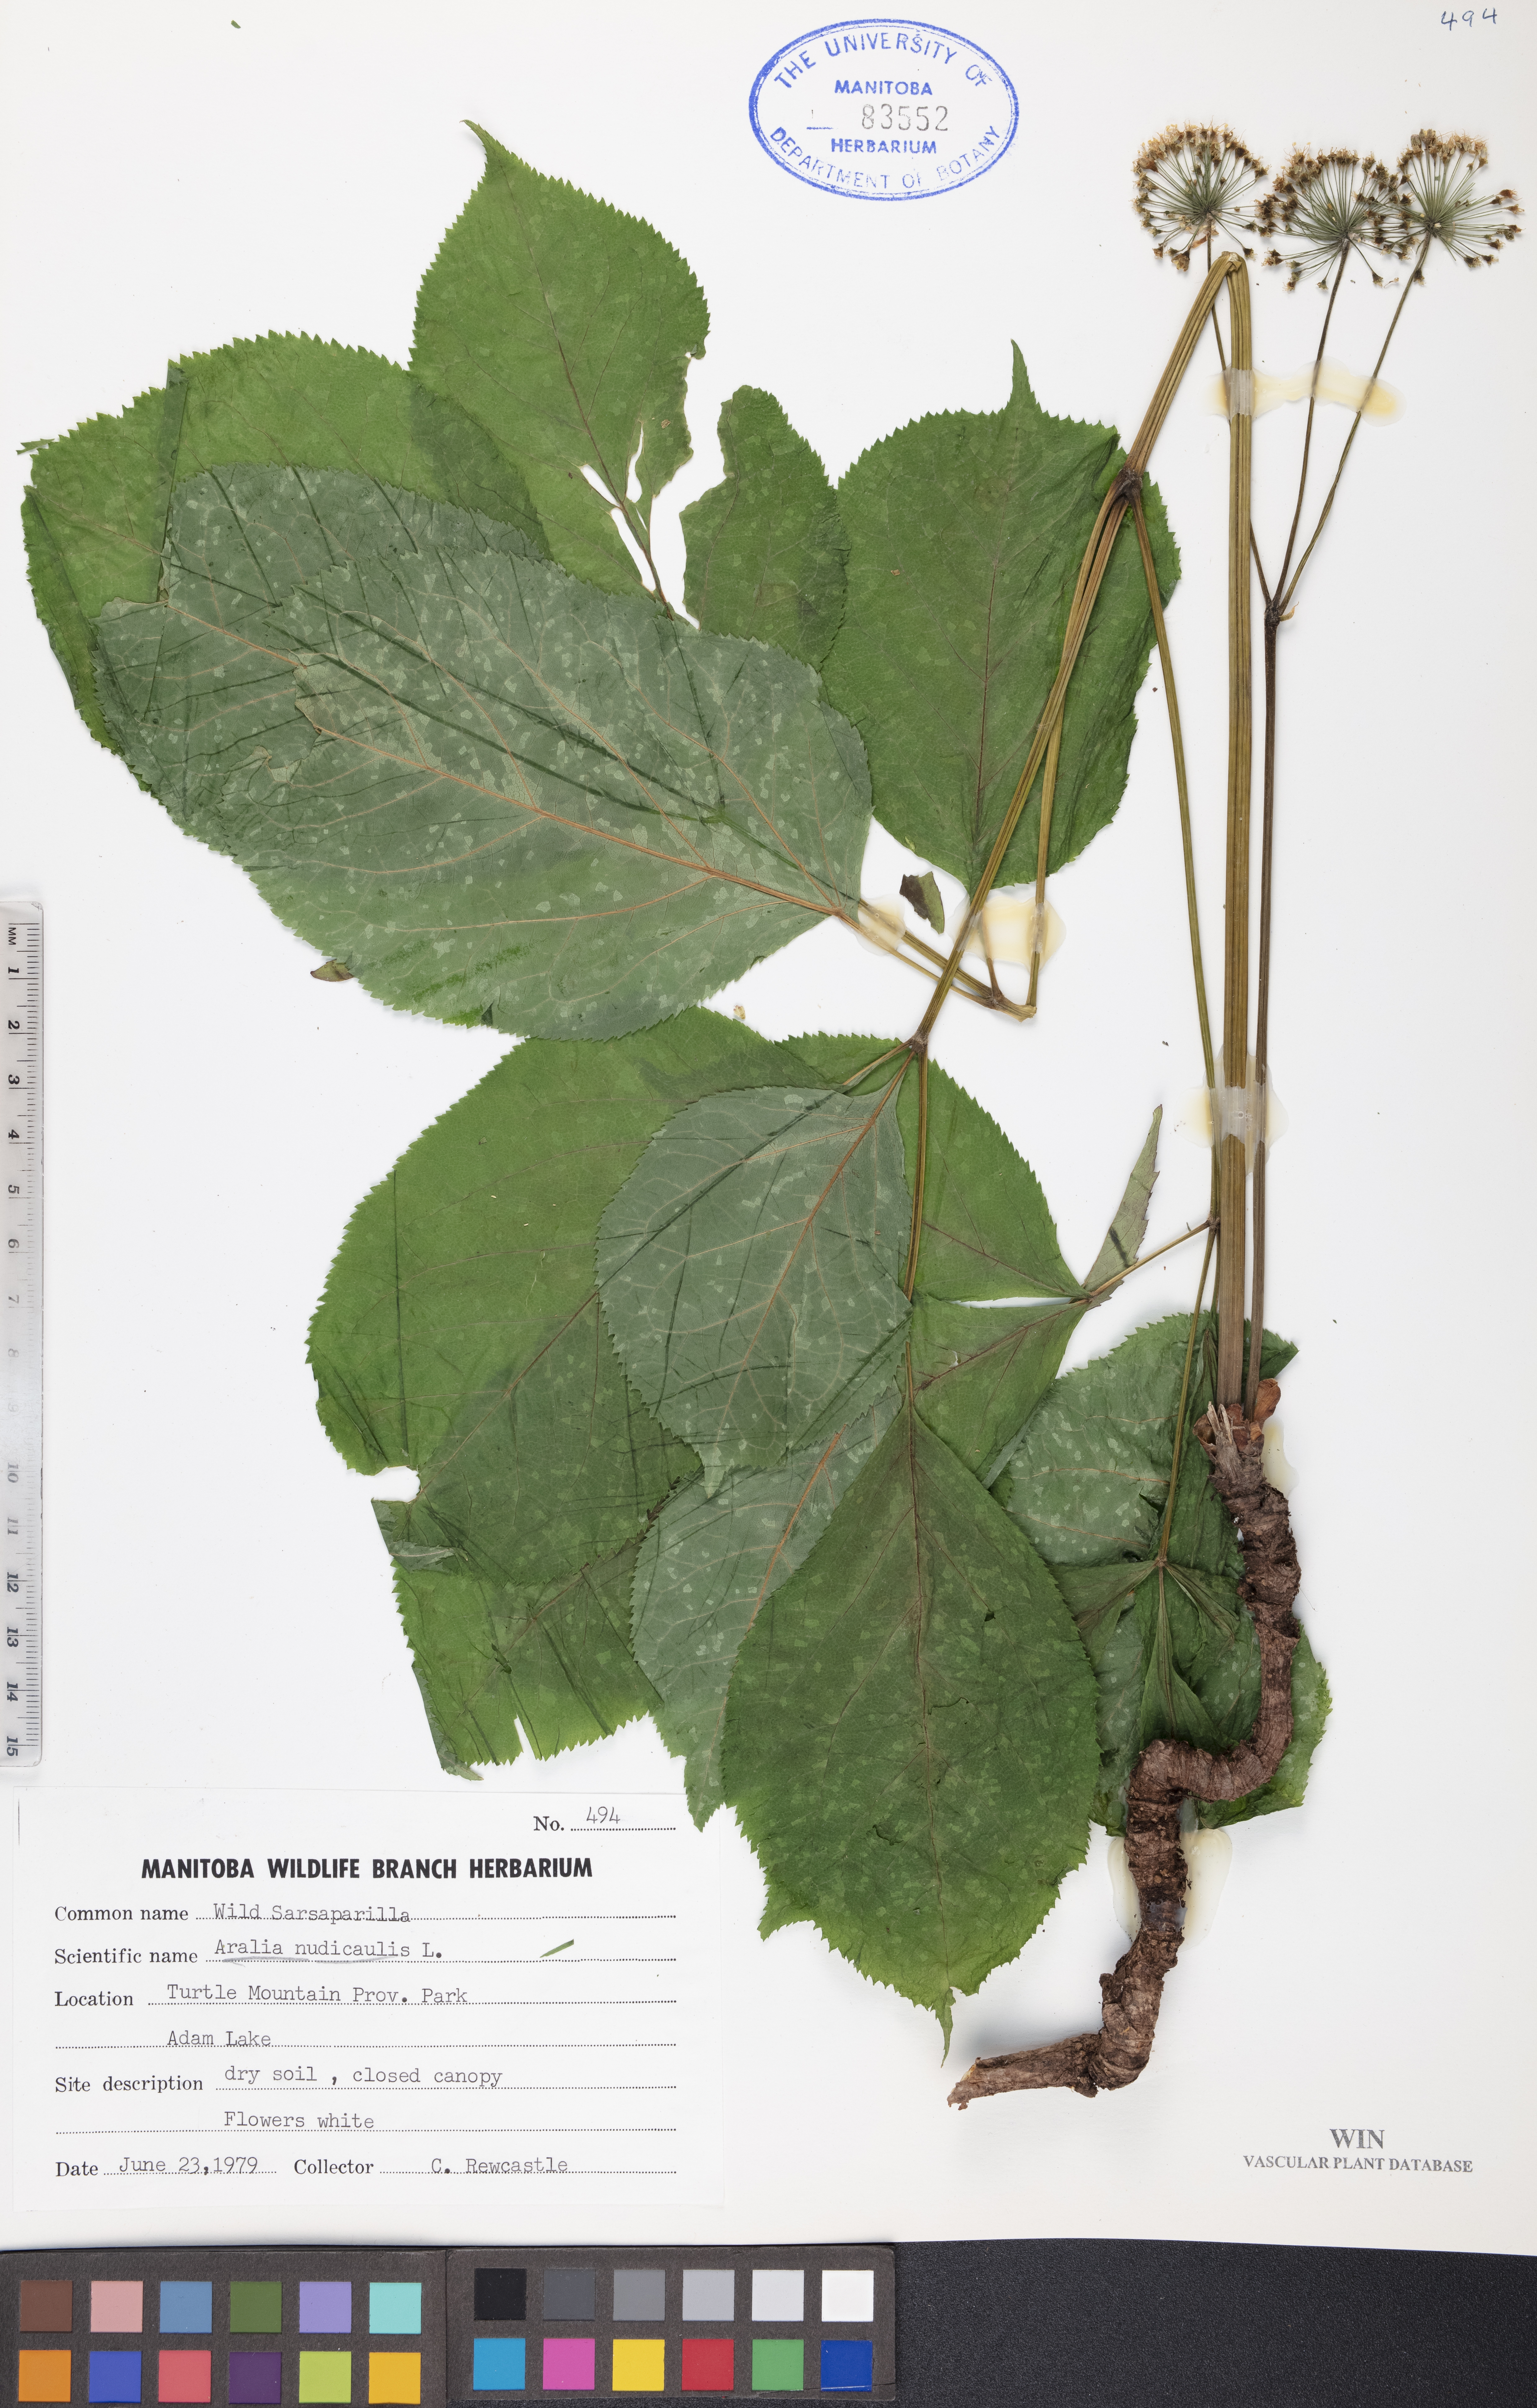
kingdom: Plantae
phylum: Tracheophyta
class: Magnoliopsida
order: Apiales
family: Araliaceae
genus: Aralia
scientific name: Aralia nudicaulis
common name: Wild sarsaparilla
